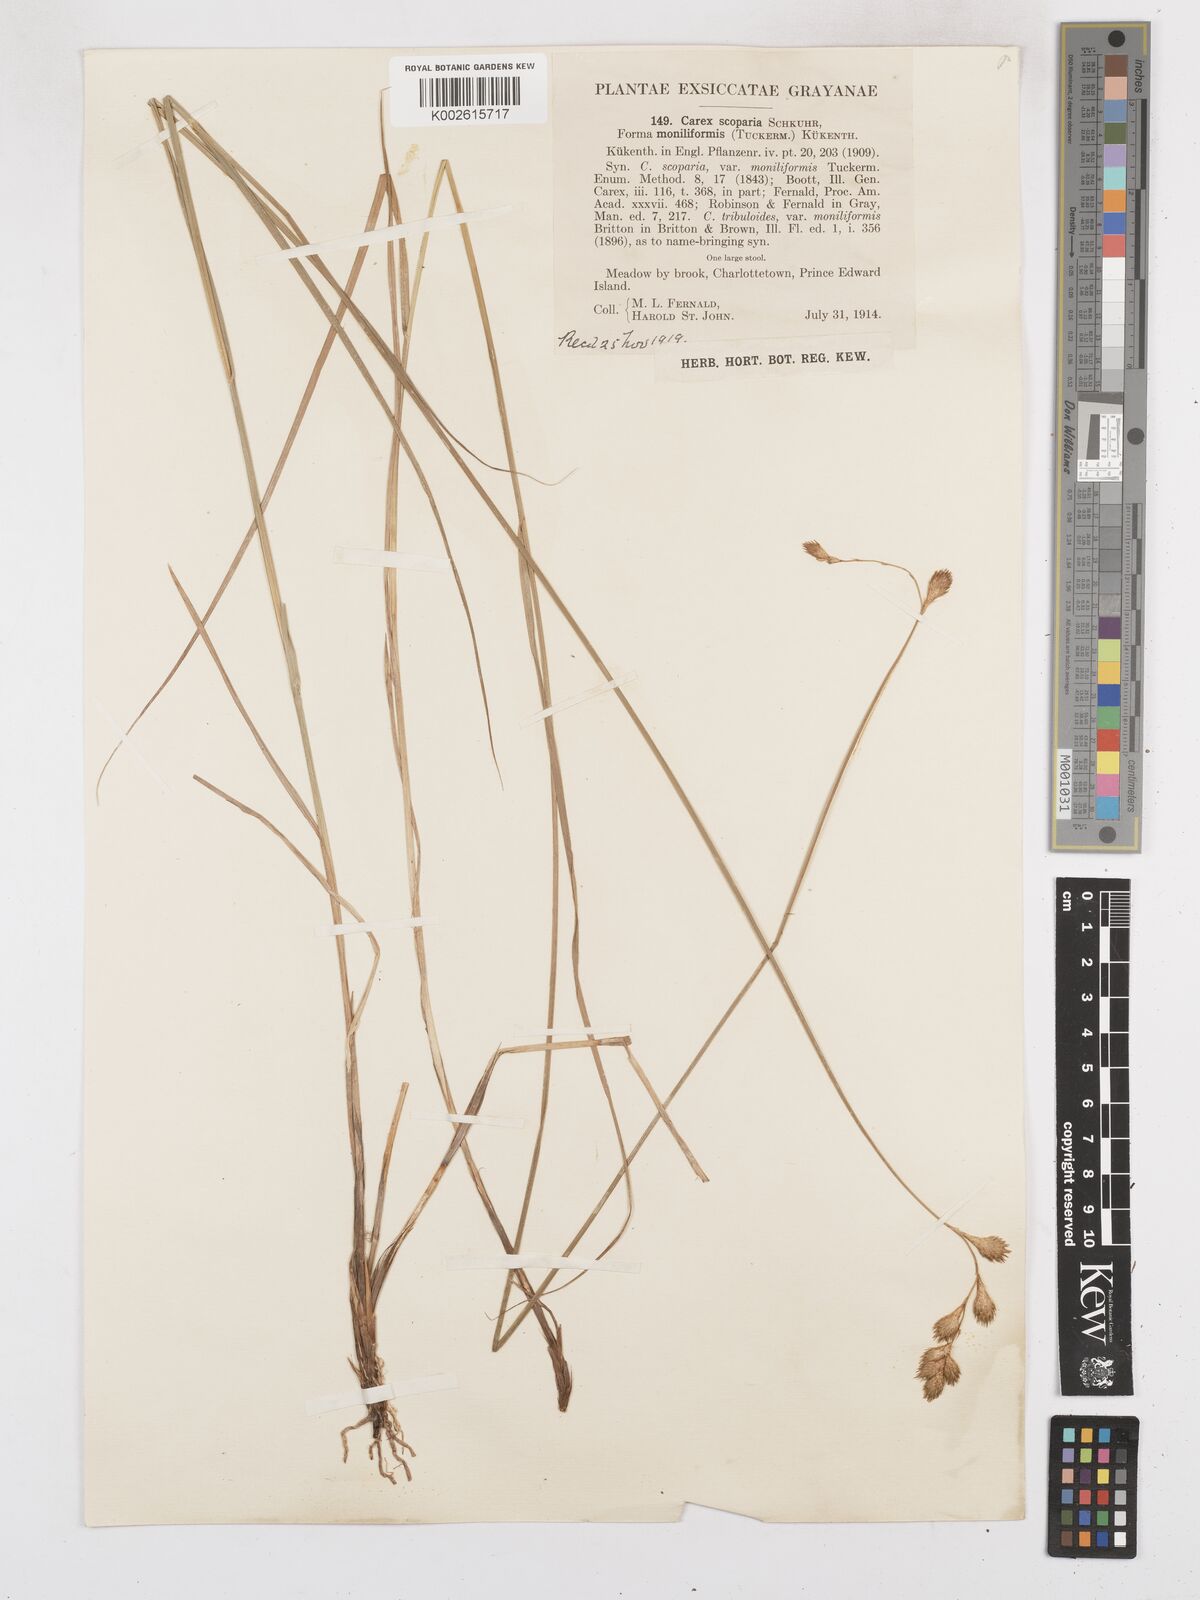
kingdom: Plantae
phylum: Tracheophyta
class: Liliopsida
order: Poales
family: Cyperaceae
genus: Carex
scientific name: Carex leporina
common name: Oval sedge
